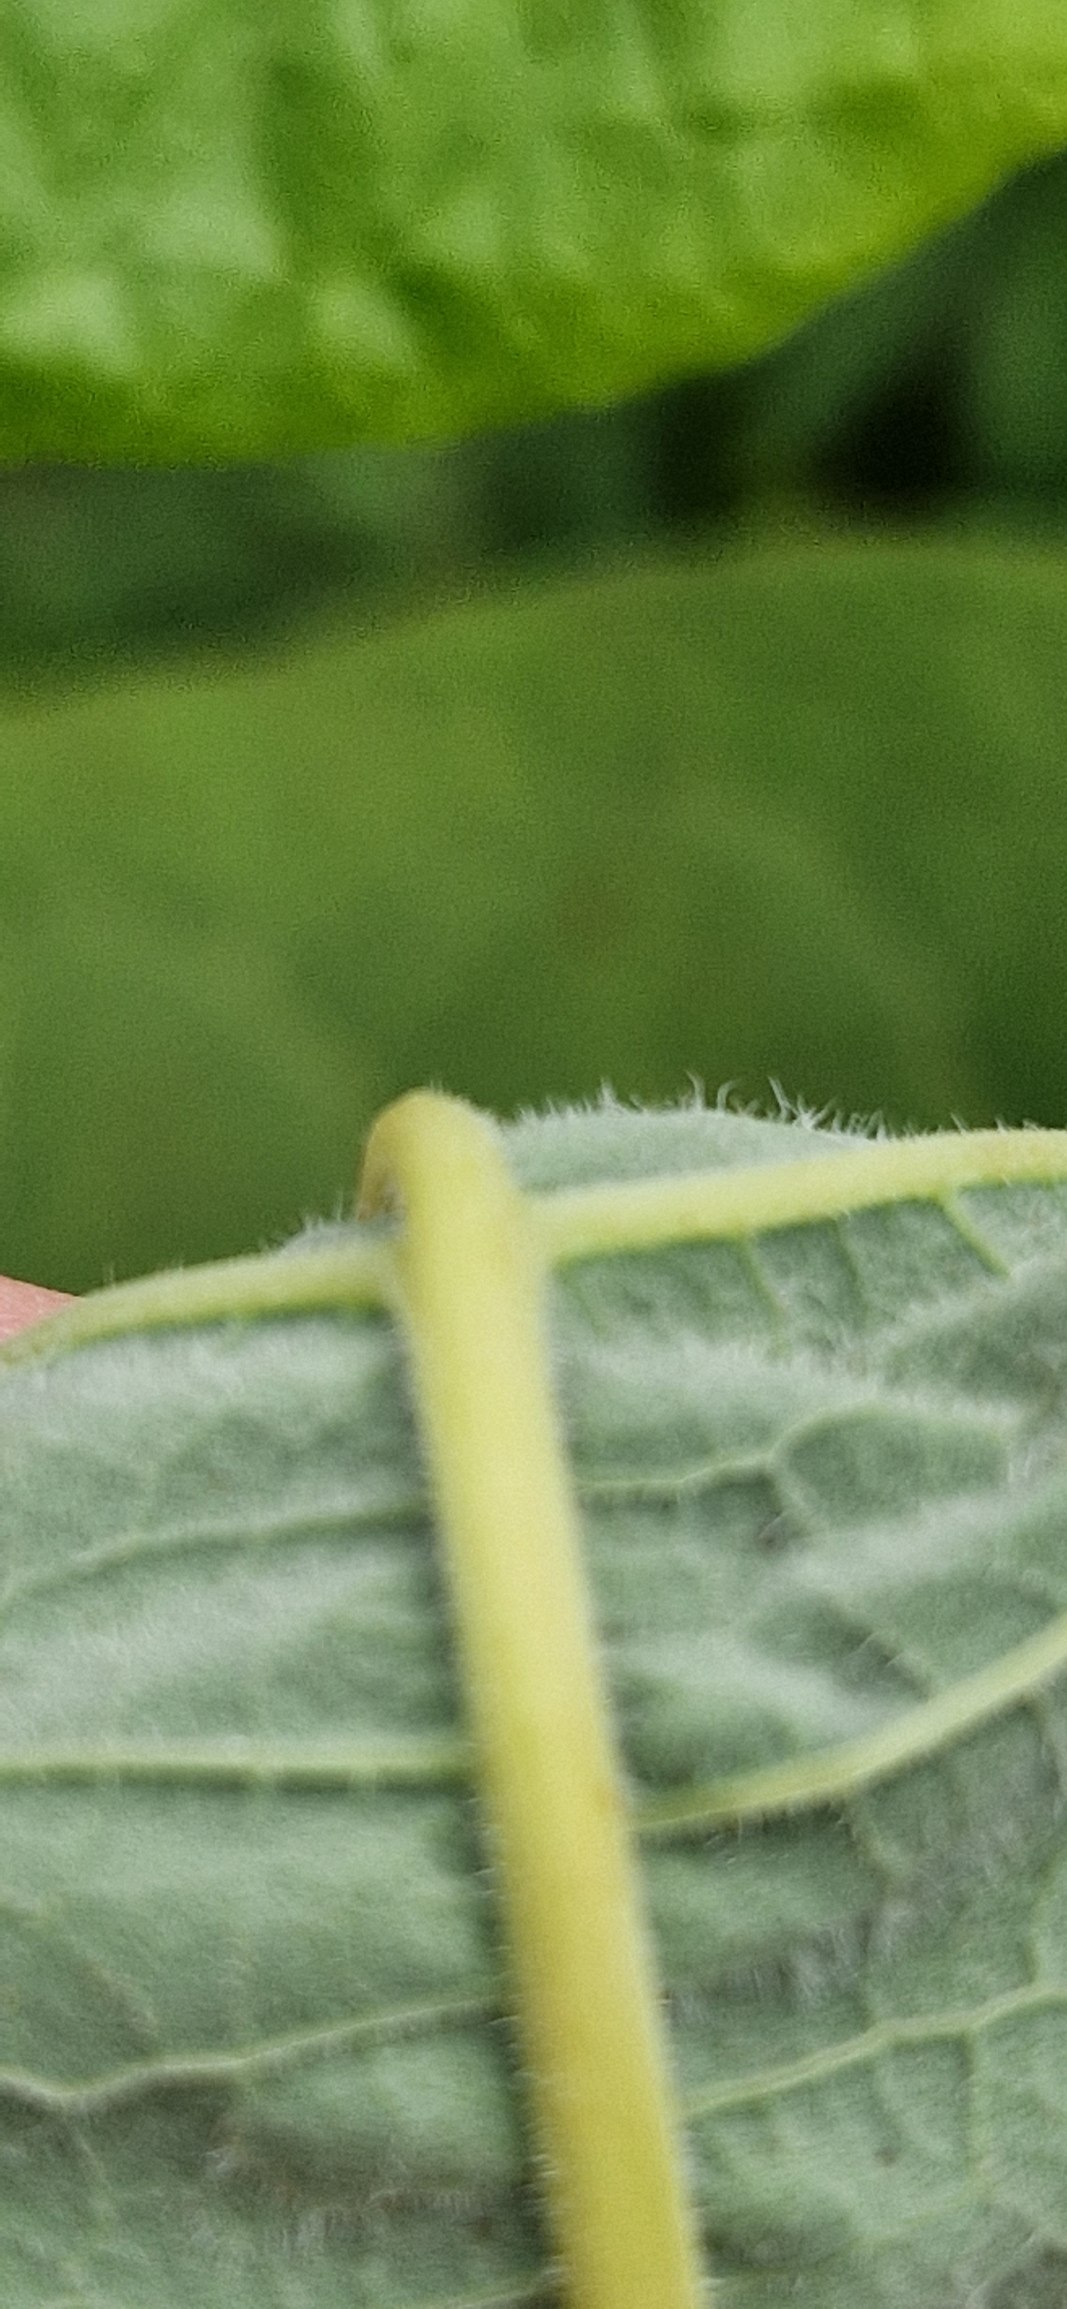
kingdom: Plantae
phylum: Tracheophyta
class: Magnoliopsida
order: Caryophyllales
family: Polygonaceae
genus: Reynoutria
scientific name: Reynoutria sachalinensis
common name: Kæmpe-pileurt
